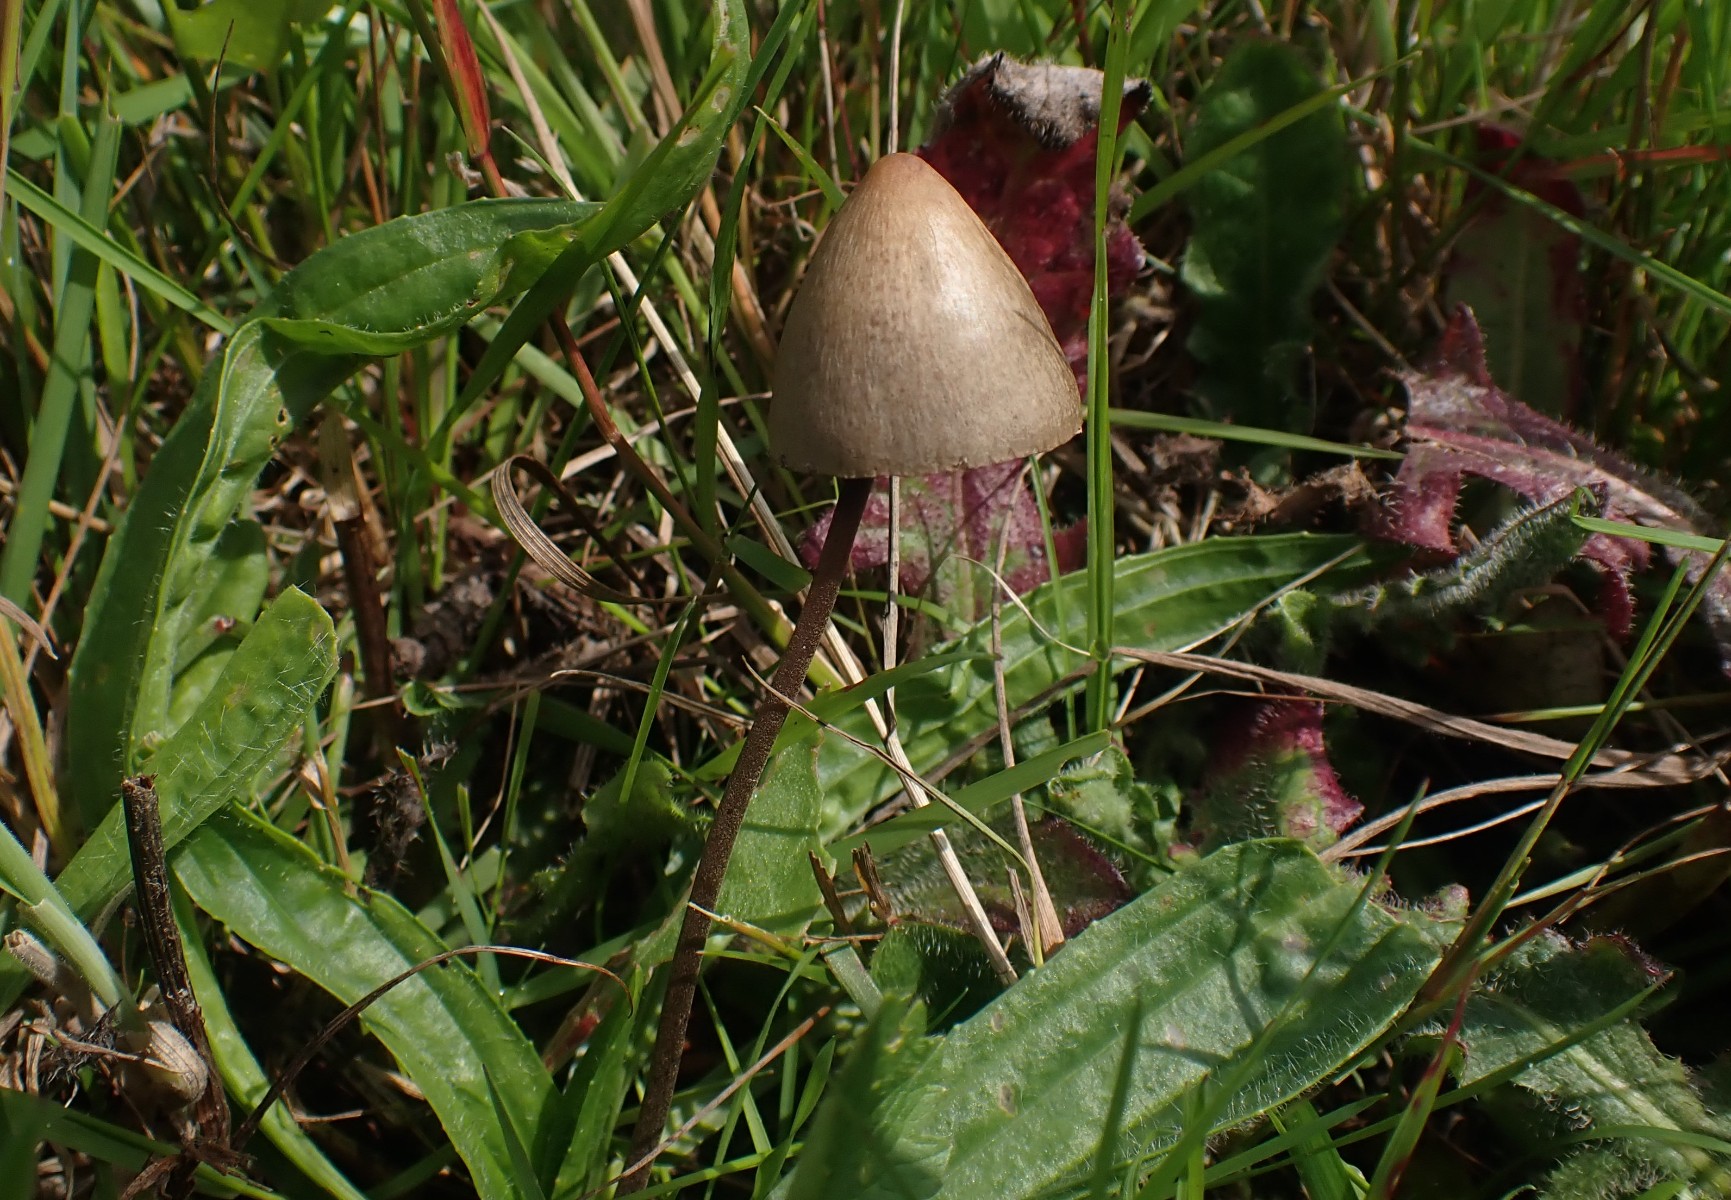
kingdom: Fungi
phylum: Basidiomycota
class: Agaricomycetes
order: Agaricales
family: Bolbitiaceae
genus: Panaeolus
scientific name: Panaeolus papilionaceus
